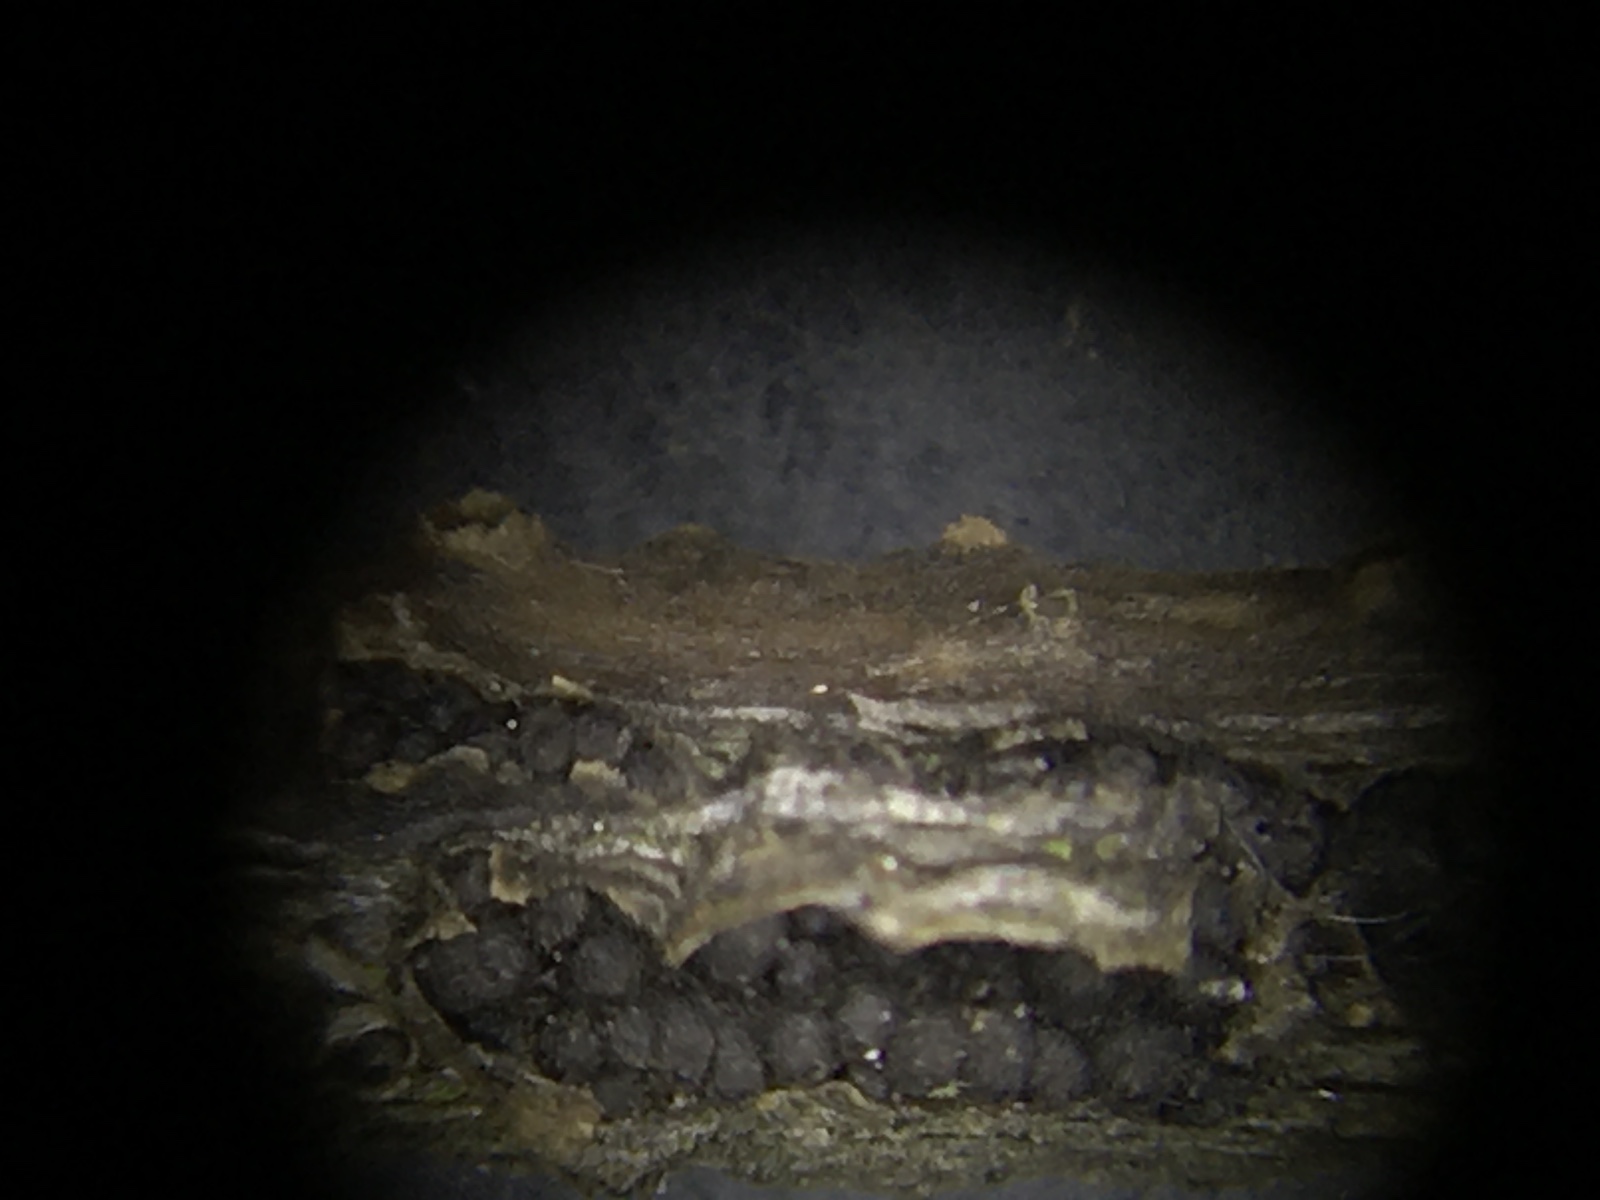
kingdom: Fungi
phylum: Ascomycota
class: Dothideomycetes
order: Pleosporales
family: Camarosporidiellaceae
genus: Camarosporidiella
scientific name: Camarosporidiella laburni
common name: guldregn-tykbær
